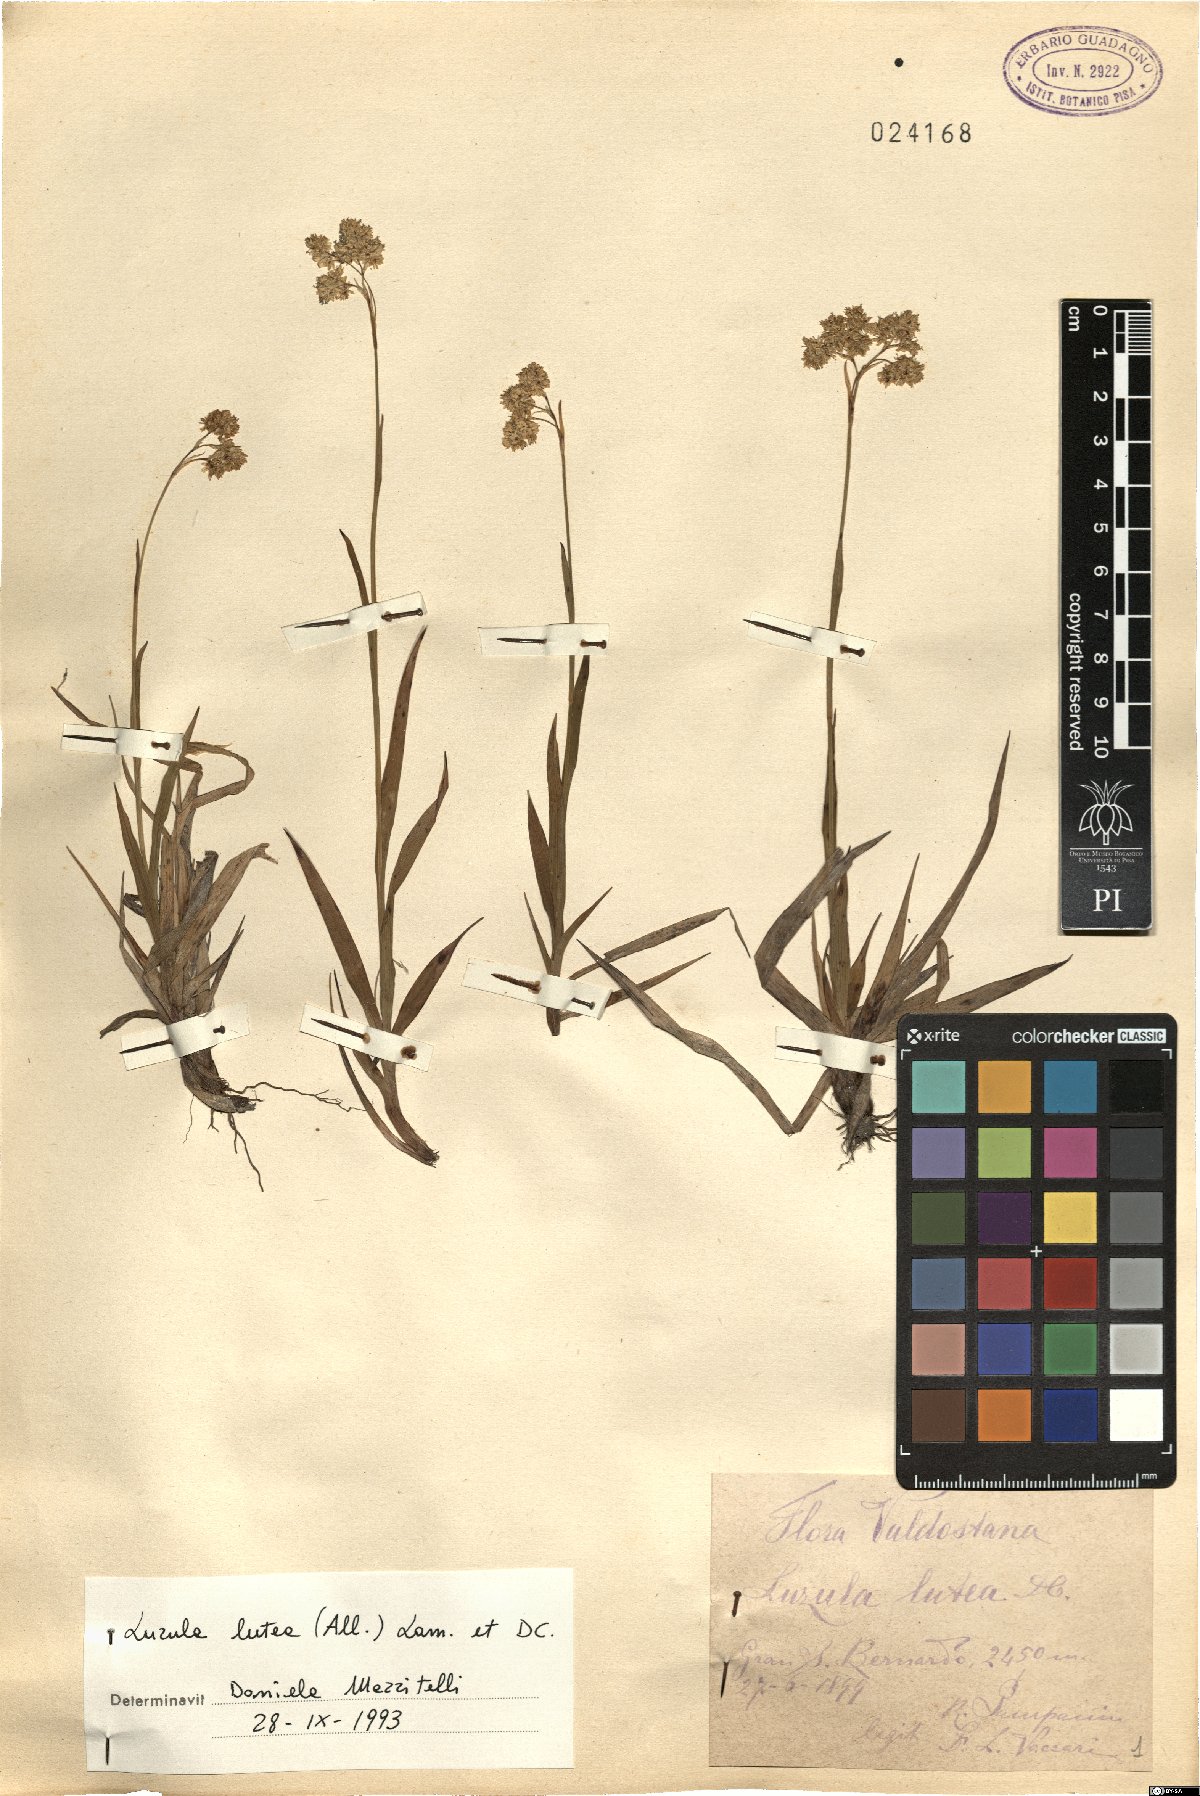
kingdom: Plantae
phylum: Tracheophyta
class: Liliopsida
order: Poales
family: Juncaceae
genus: Luzula
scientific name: Luzula lutea
